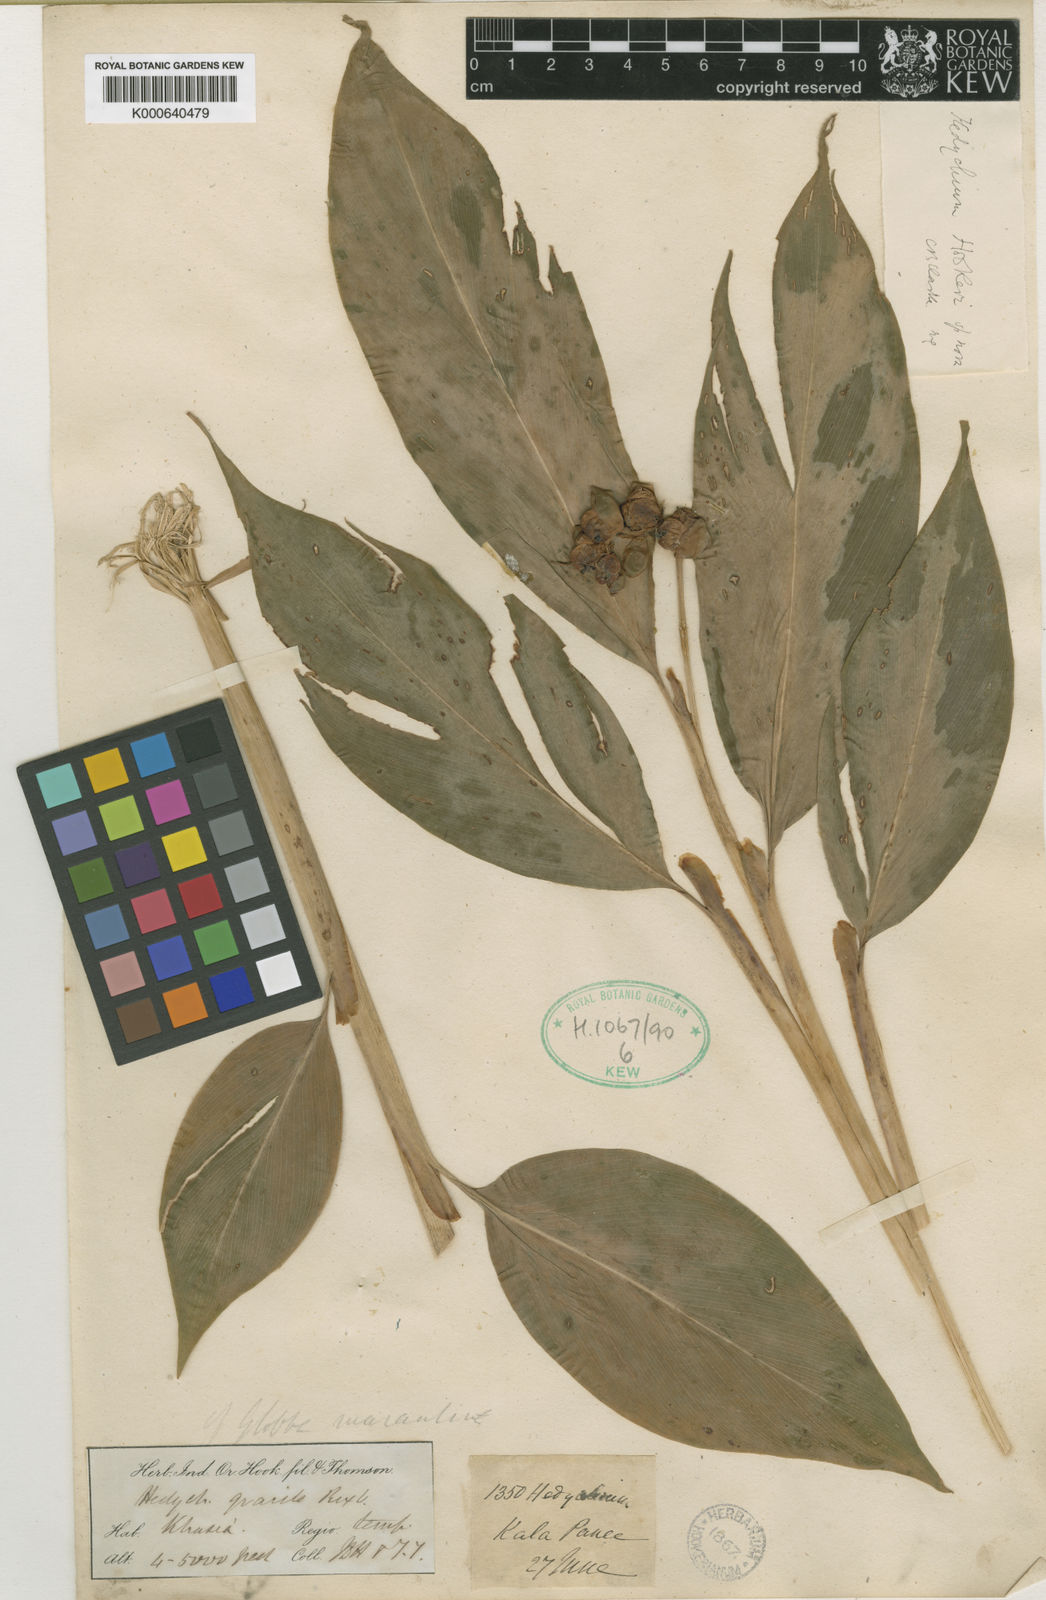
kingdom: Plantae
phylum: Tracheophyta
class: Liliopsida
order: Zingiberales
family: Zingiberaceae
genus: Hedychium
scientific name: Hedychium hookeri
